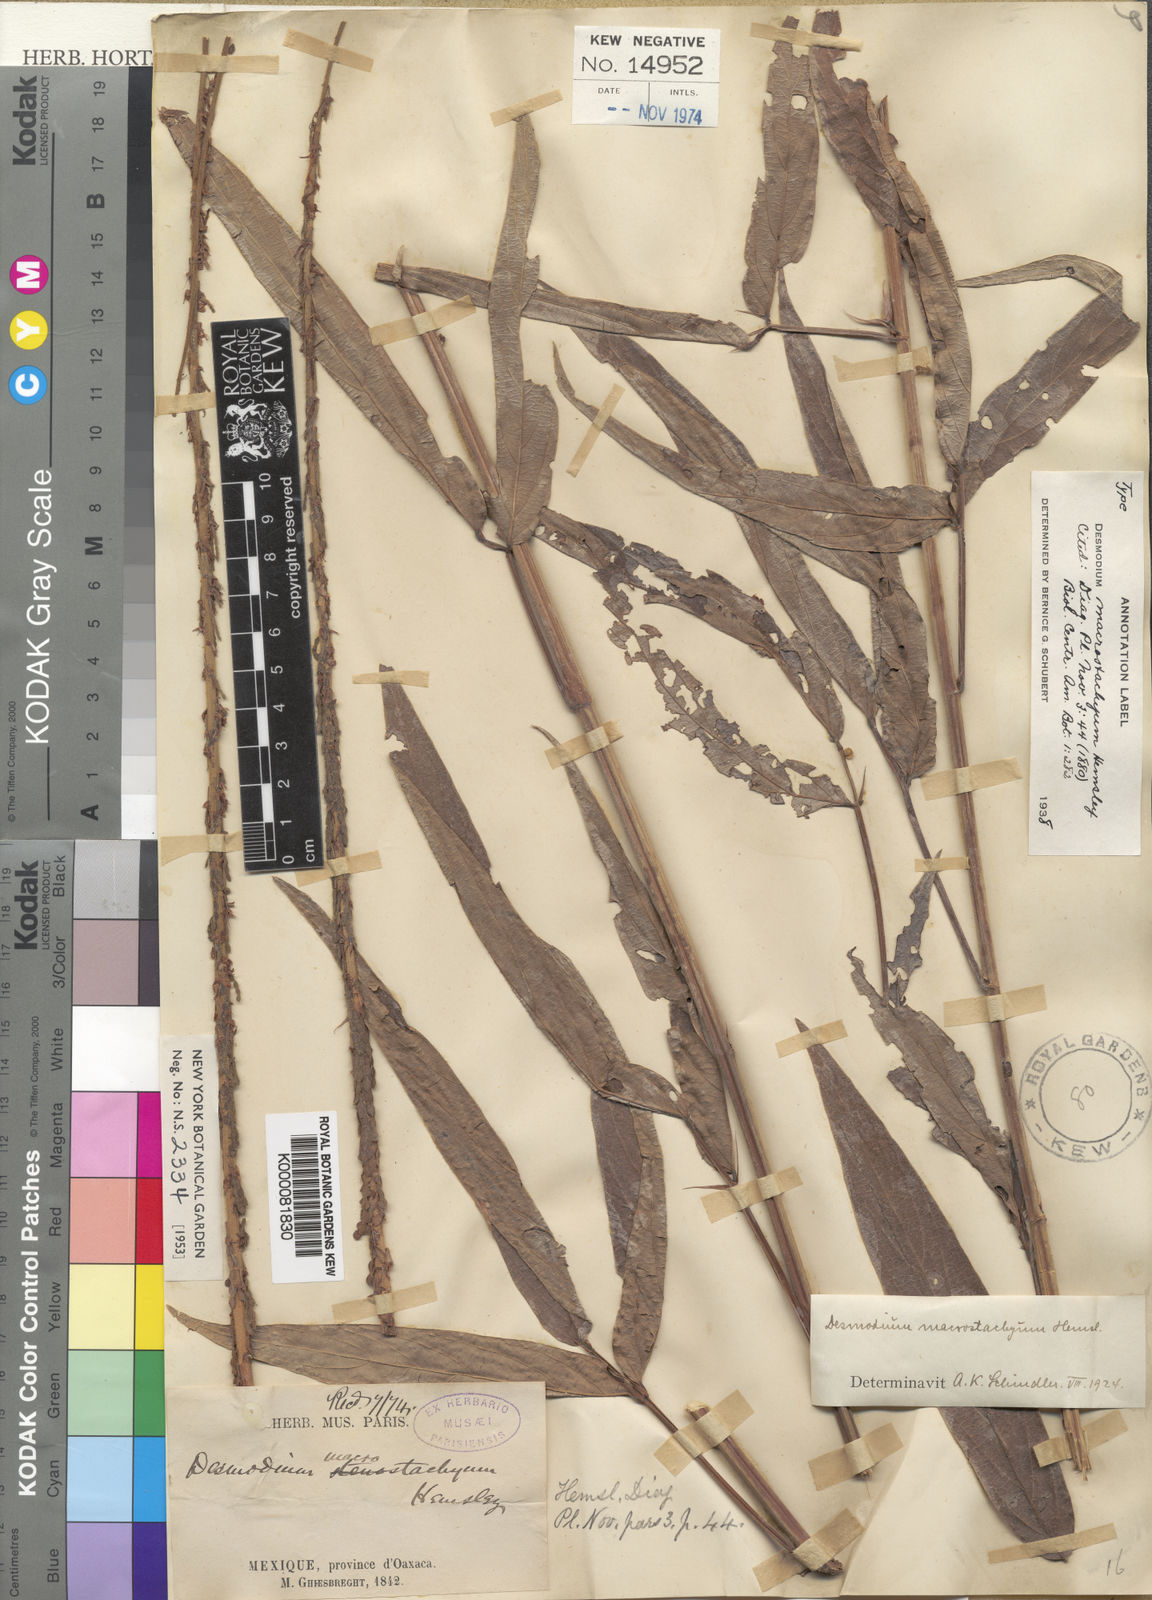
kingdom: Plantae
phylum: Tracheophyta
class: Magnoliopsida
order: Fabales
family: Fabaceae
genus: Desmodium
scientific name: Desmodium macrostachyum
